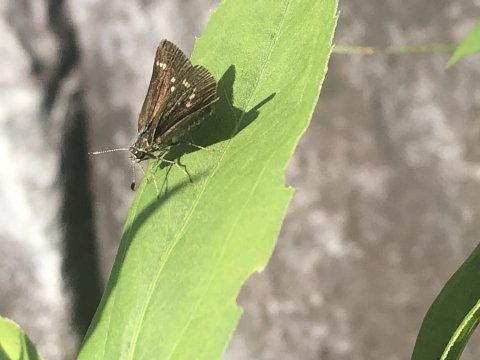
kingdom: Animalia
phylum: Arthropoda
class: Insecta
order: Lepidoptera
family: Hesperiidae
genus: Mastor
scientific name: Mastor hegon
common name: Pepper and Salt Skipper
